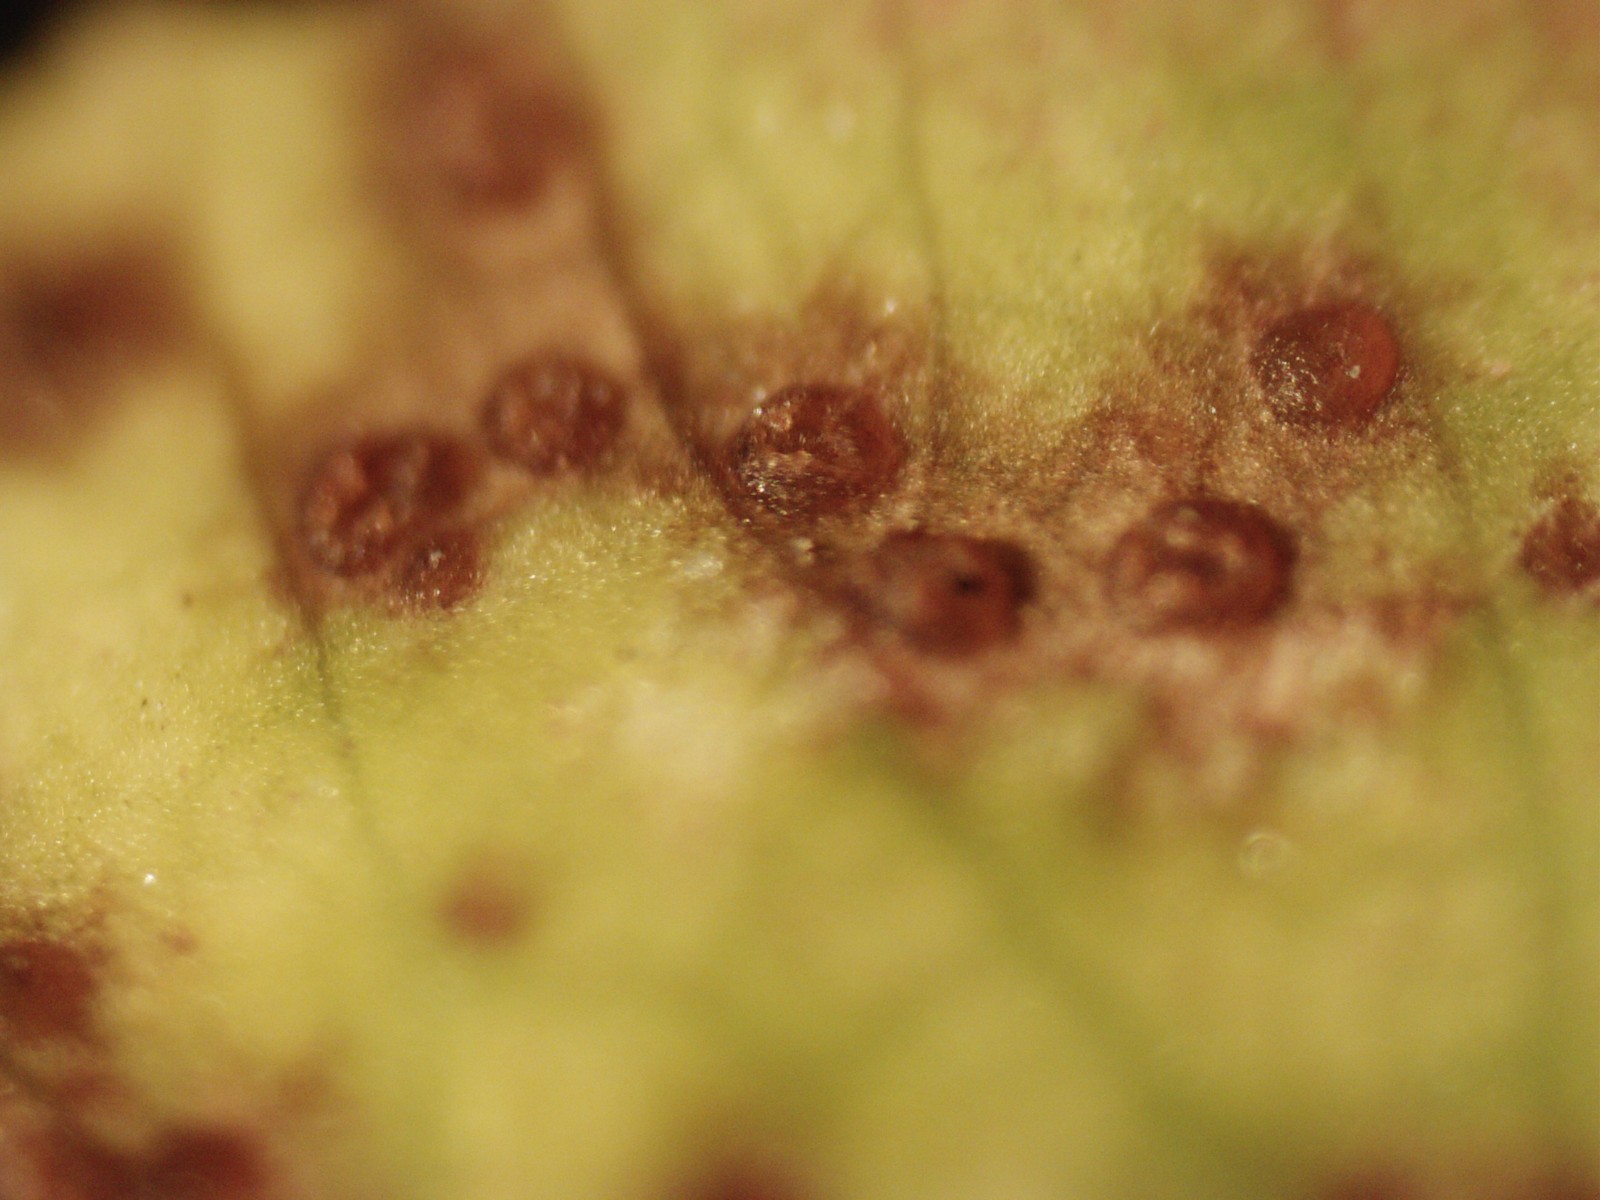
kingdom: Fungi
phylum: Ascomycota
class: Leotiomycetes
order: Helotiales
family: Drepanopezizaceae
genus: Pseudopeziza
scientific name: Pseudopeziza trifolii
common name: kløver-bladskive
